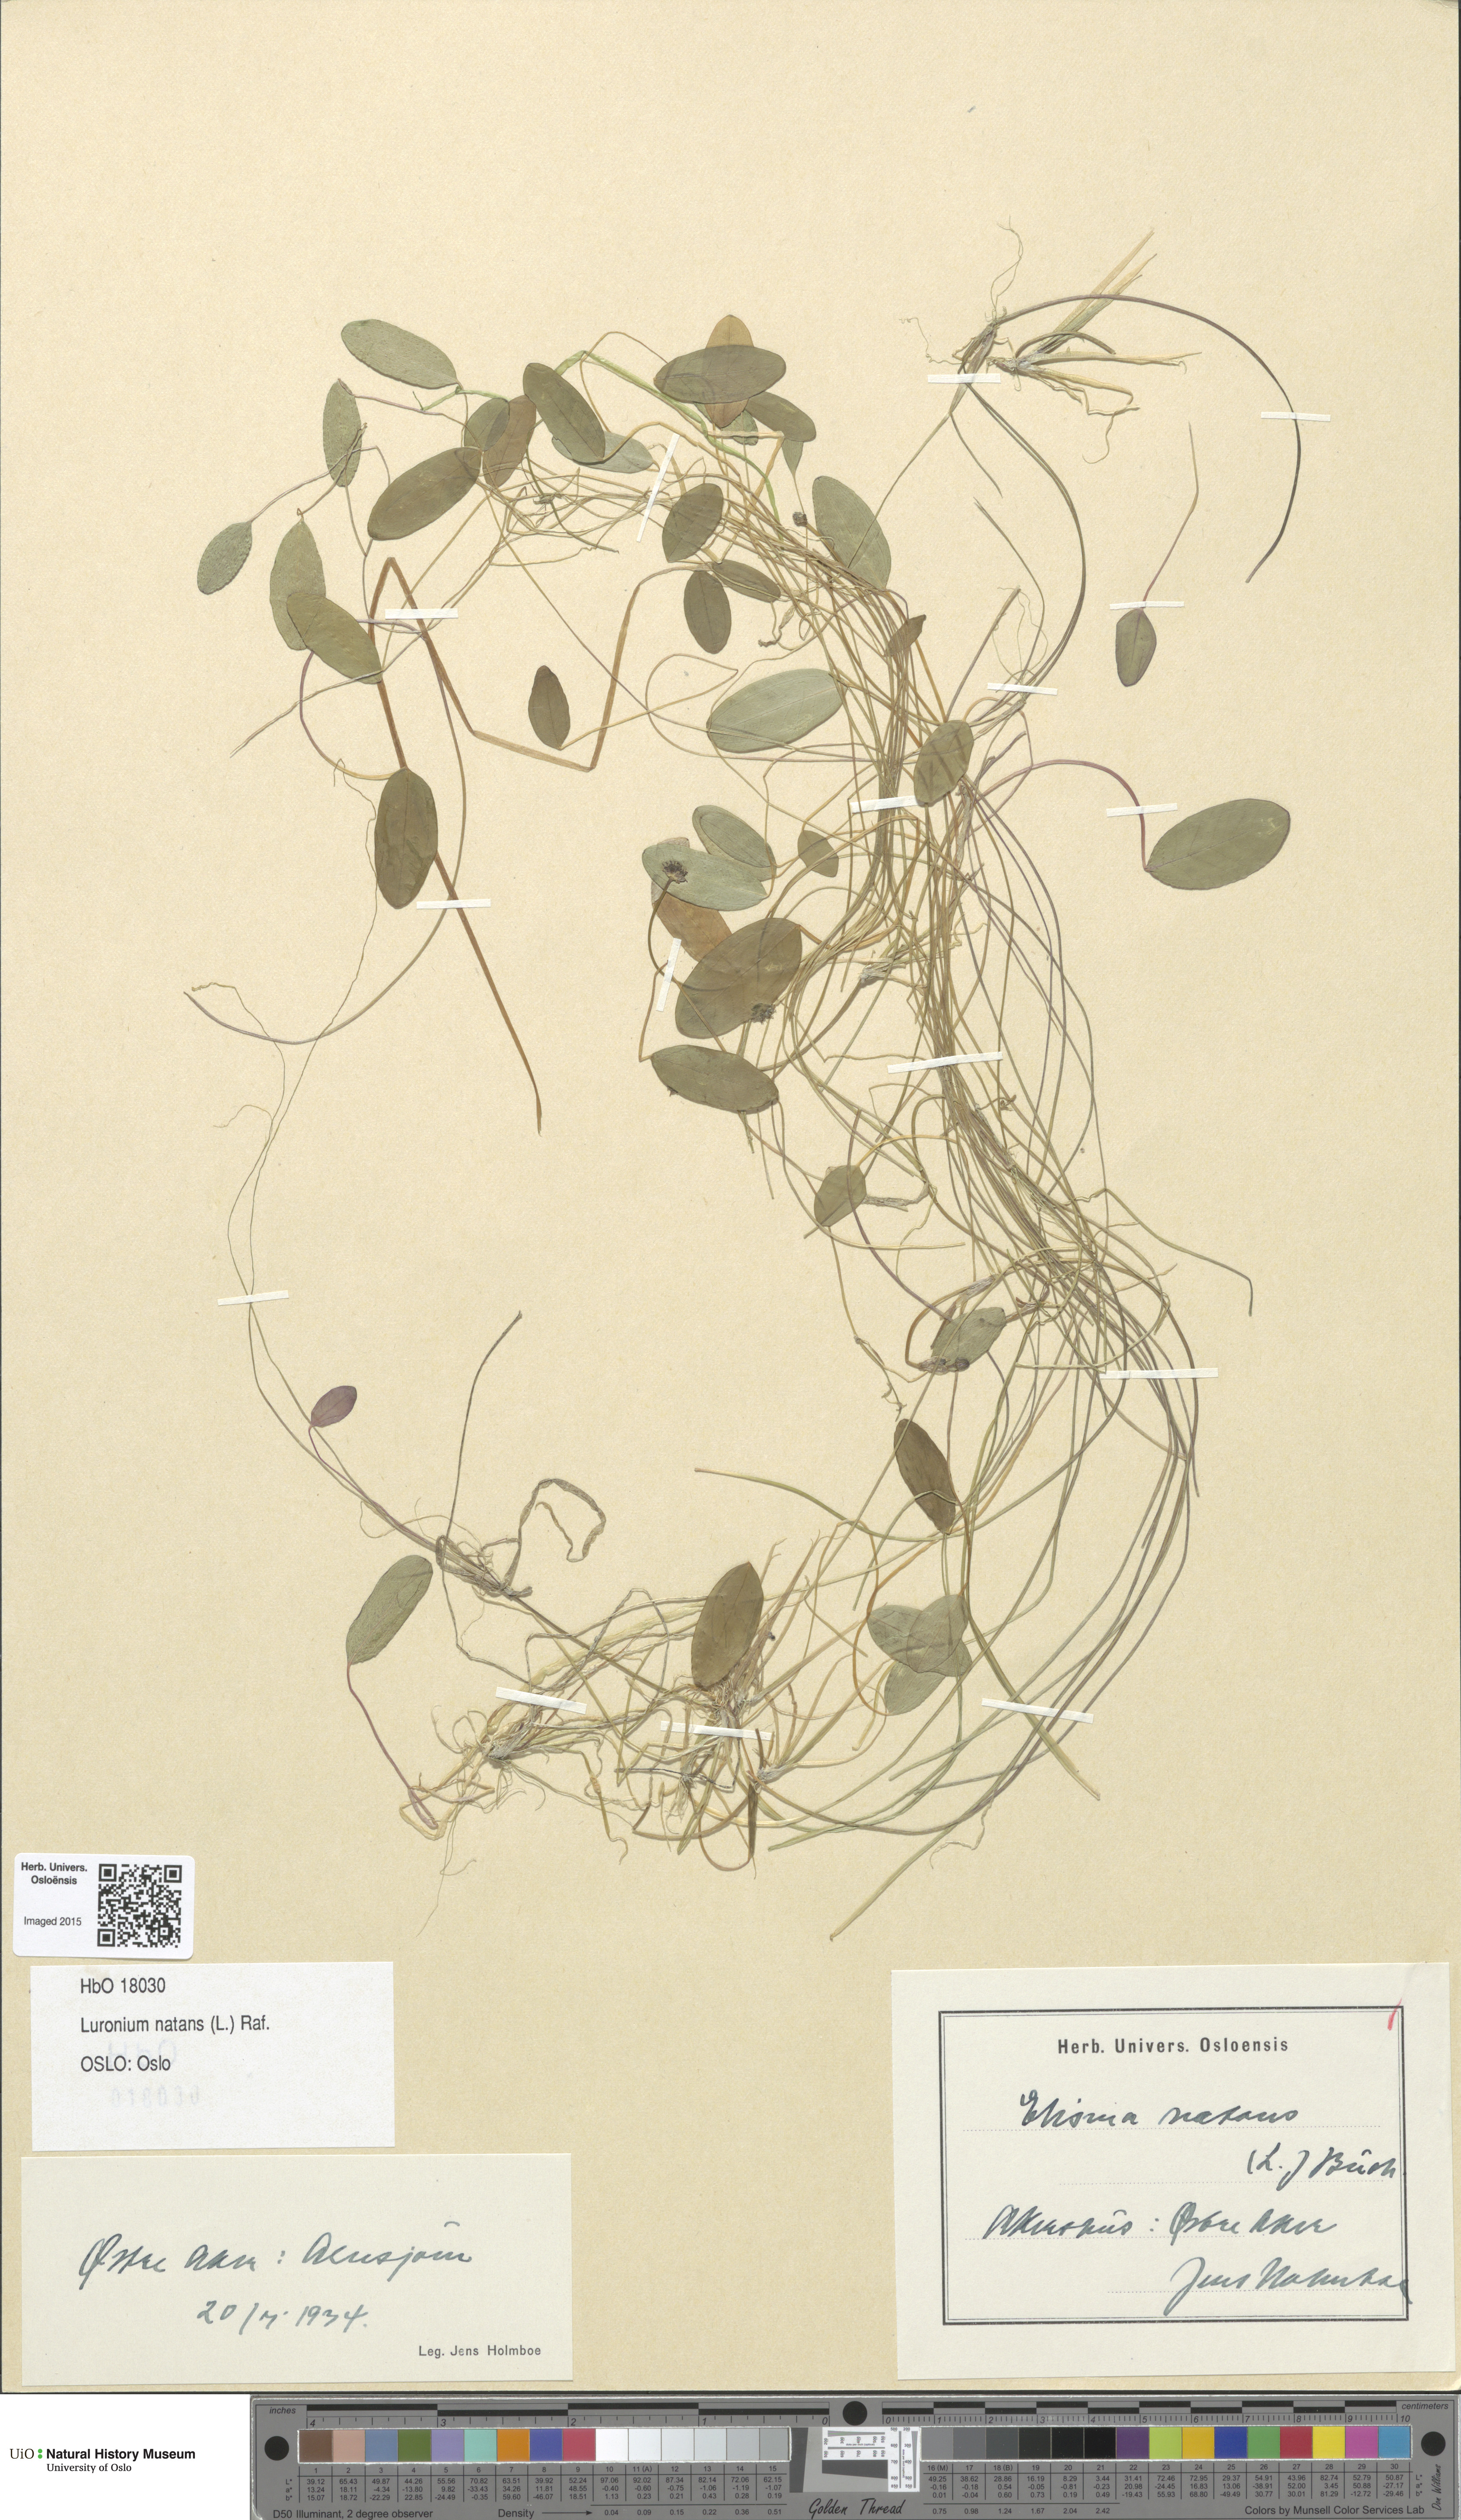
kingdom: Plantae
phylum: Tracheophyta
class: Liliopsida
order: Alismatales
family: Alismataceae
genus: Luronium
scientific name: Luronium natans
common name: Floating water-plantain
